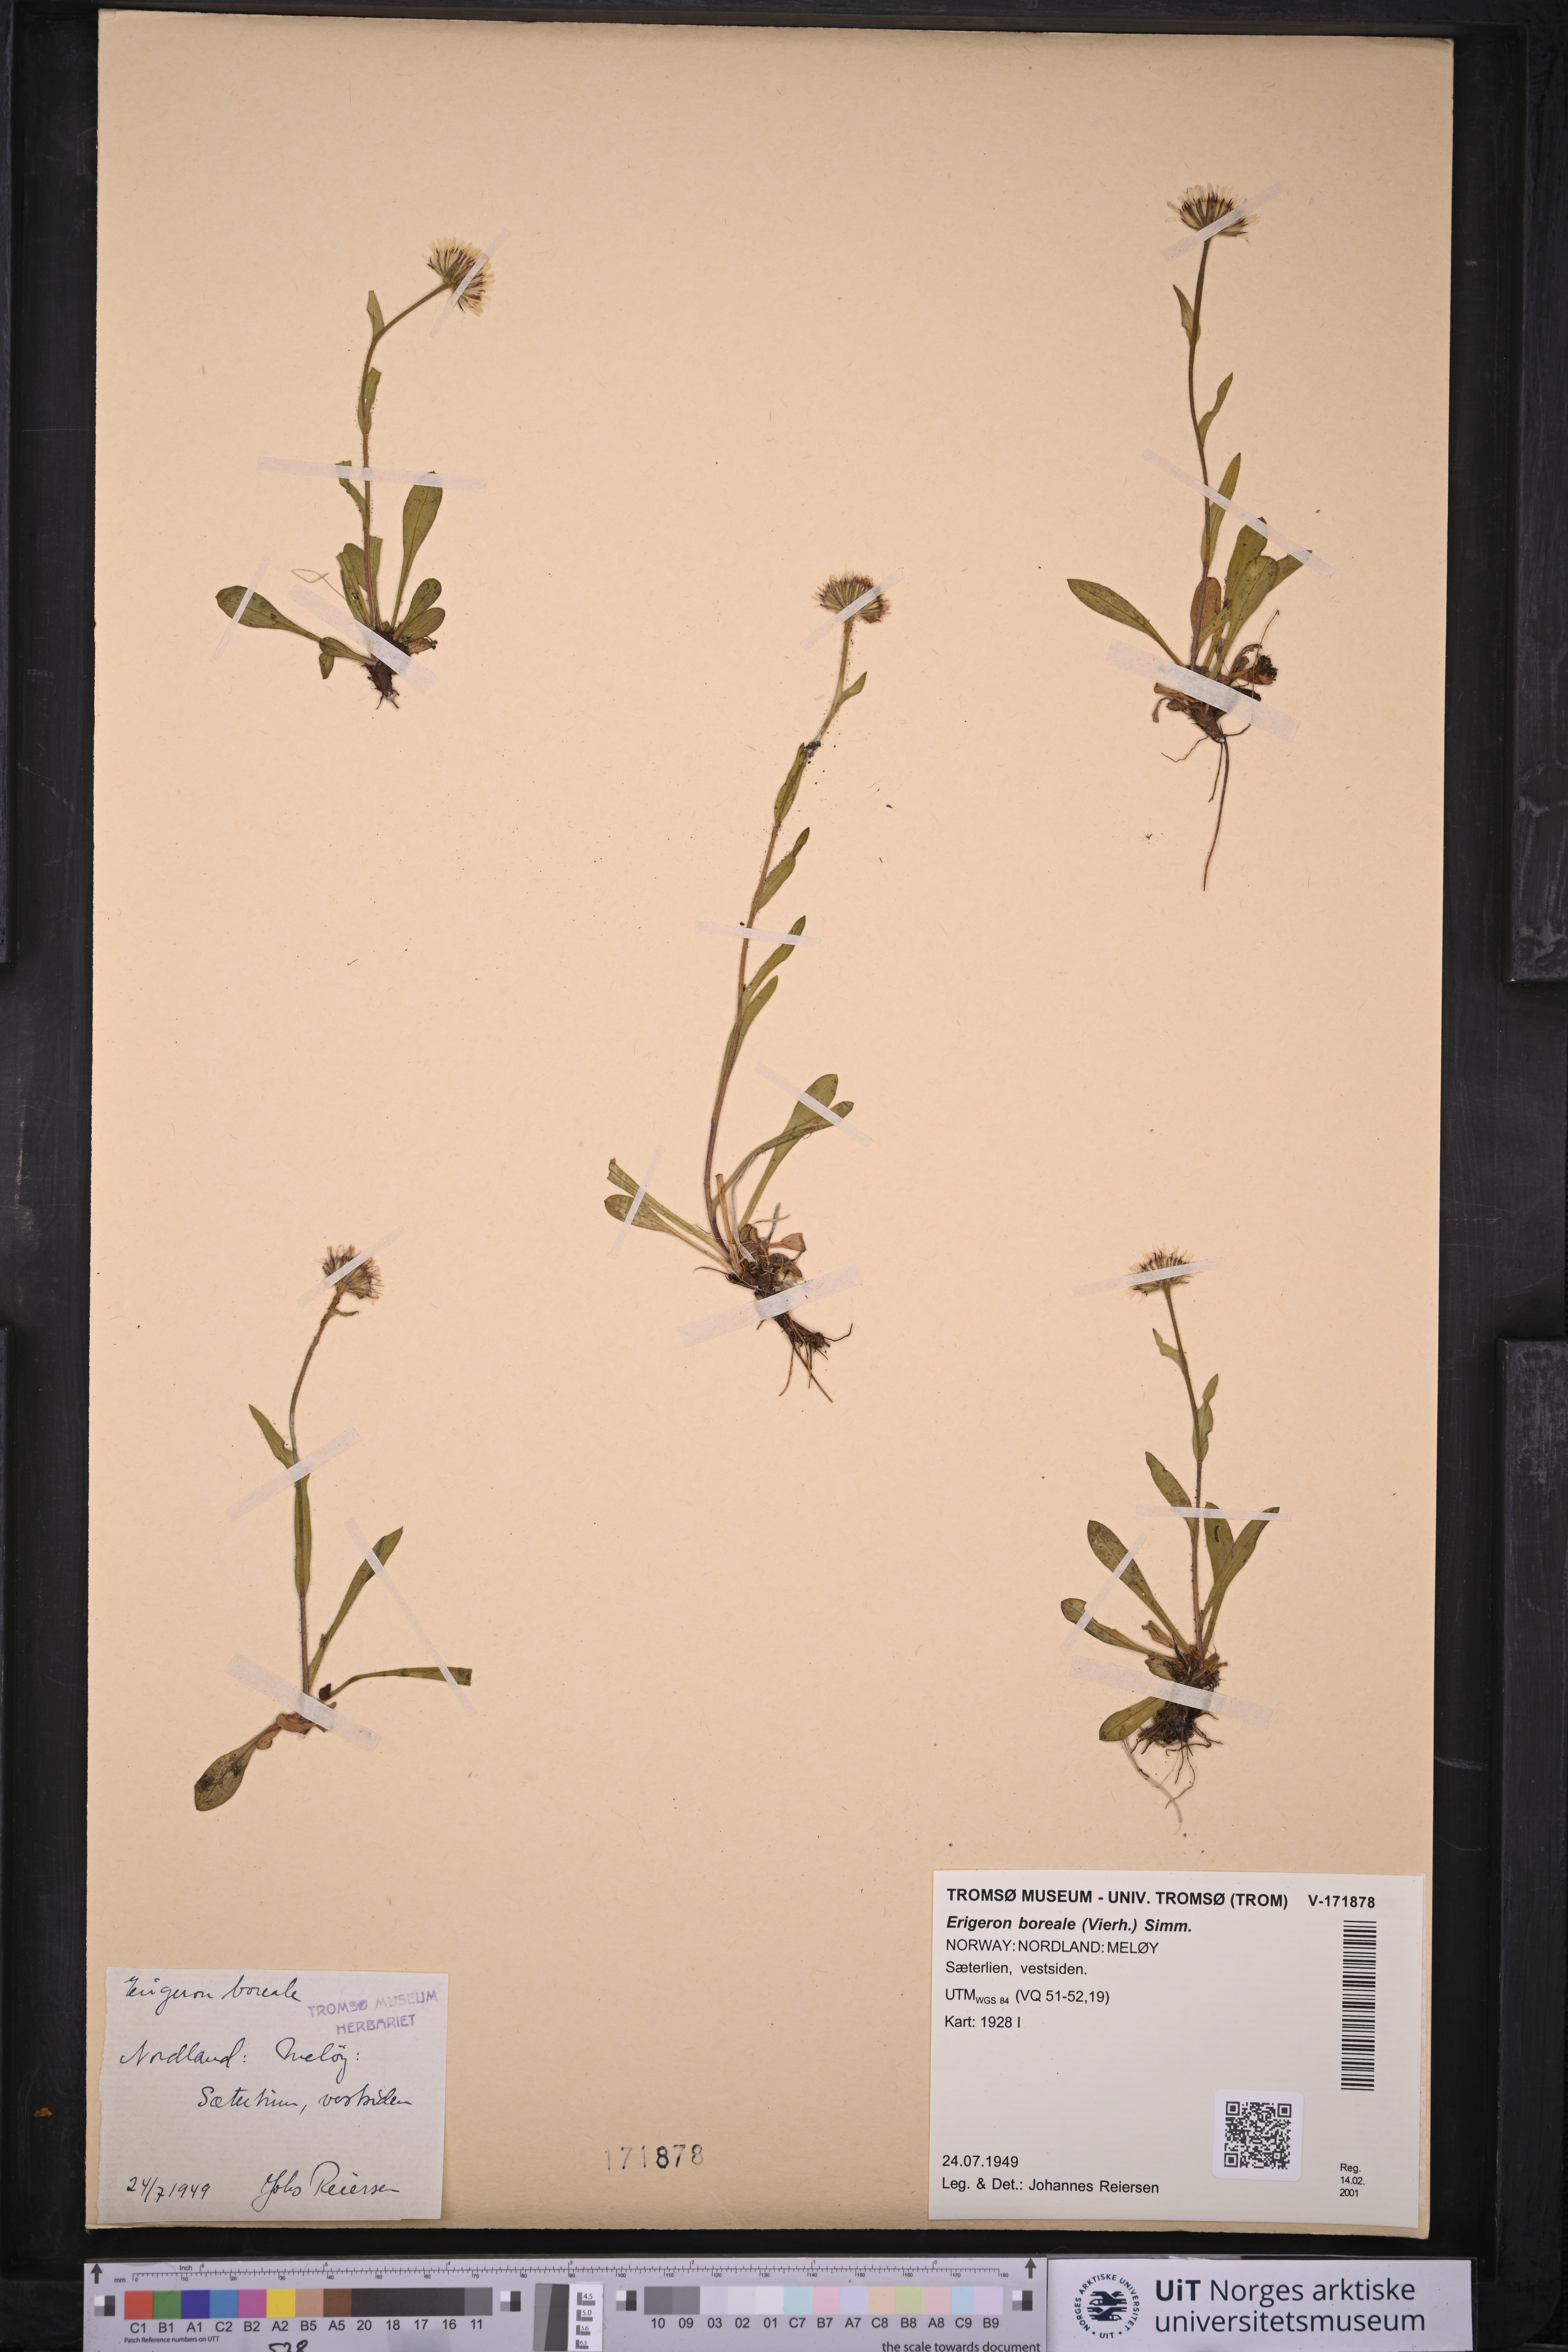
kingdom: Plantae
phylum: Tracheophyta
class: Magnoliopsida
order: Asterales
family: Asteraceae
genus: Erigeron
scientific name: Erigeron borealis
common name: Alpine fleabane
